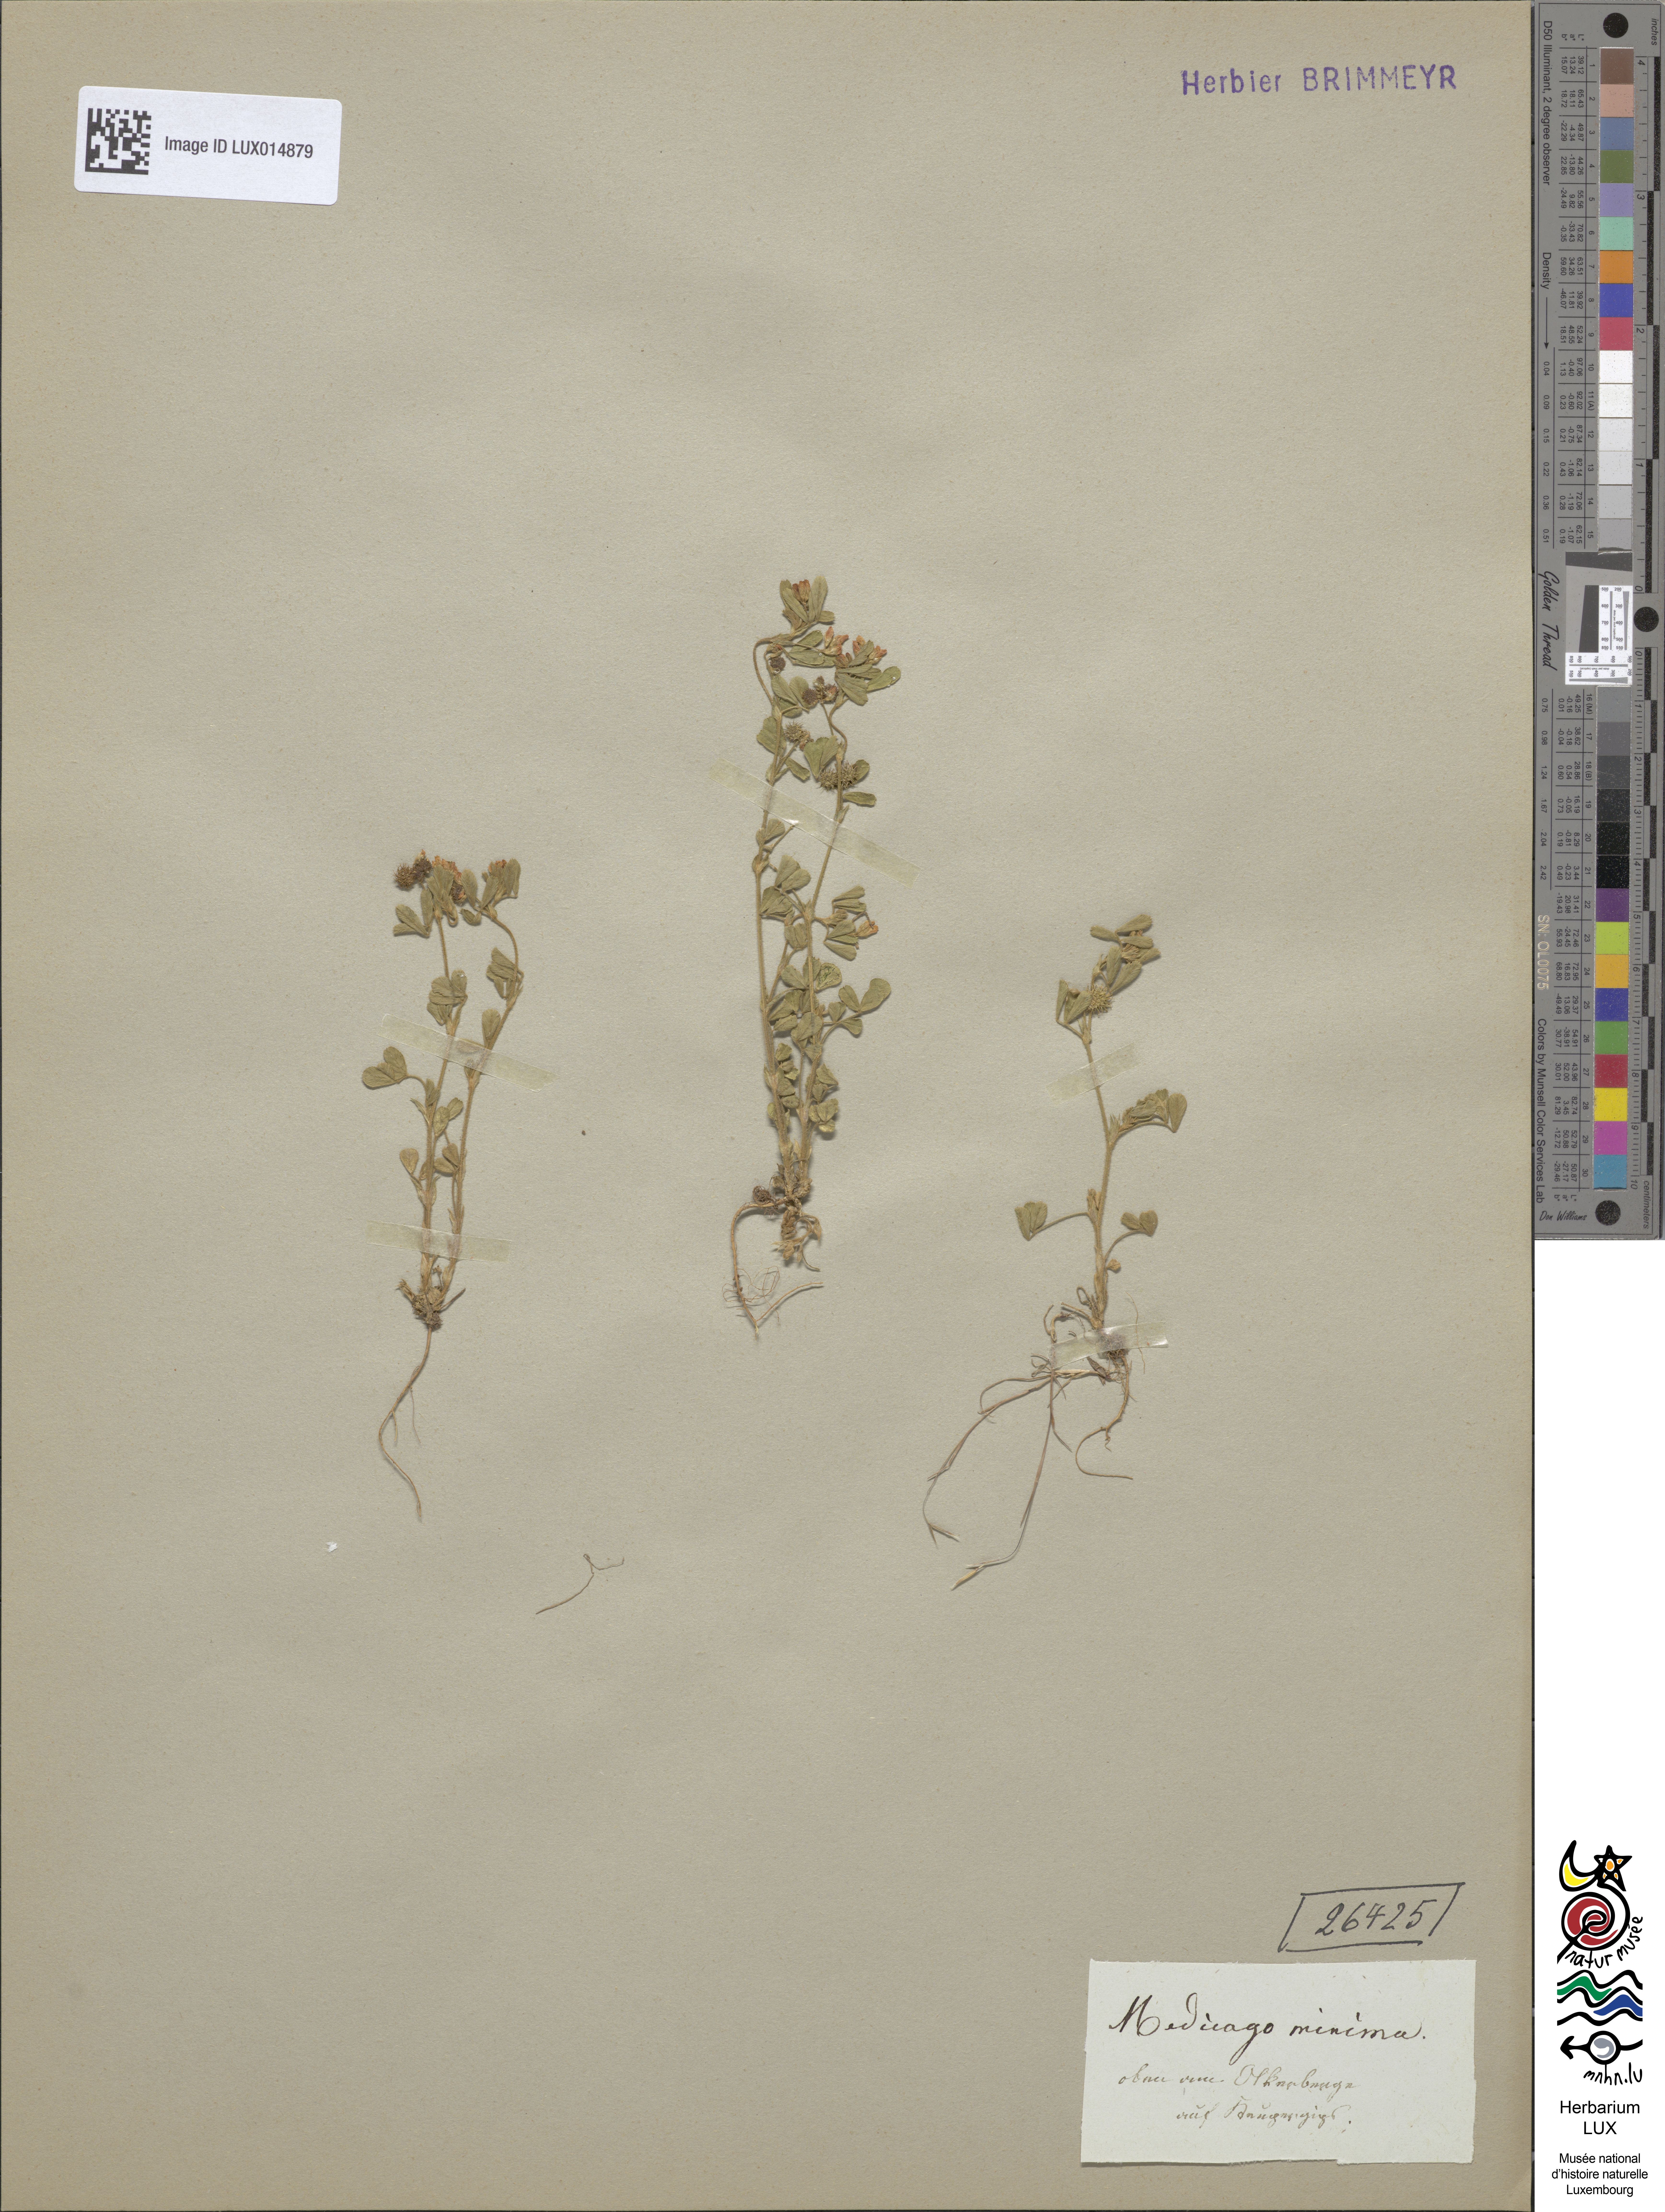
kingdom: Plantae
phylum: Tracheophyta
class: Magnoliopsida
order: Fabales
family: Fabaceae
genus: Medicago
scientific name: Medicago minima
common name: Little bur-clover
